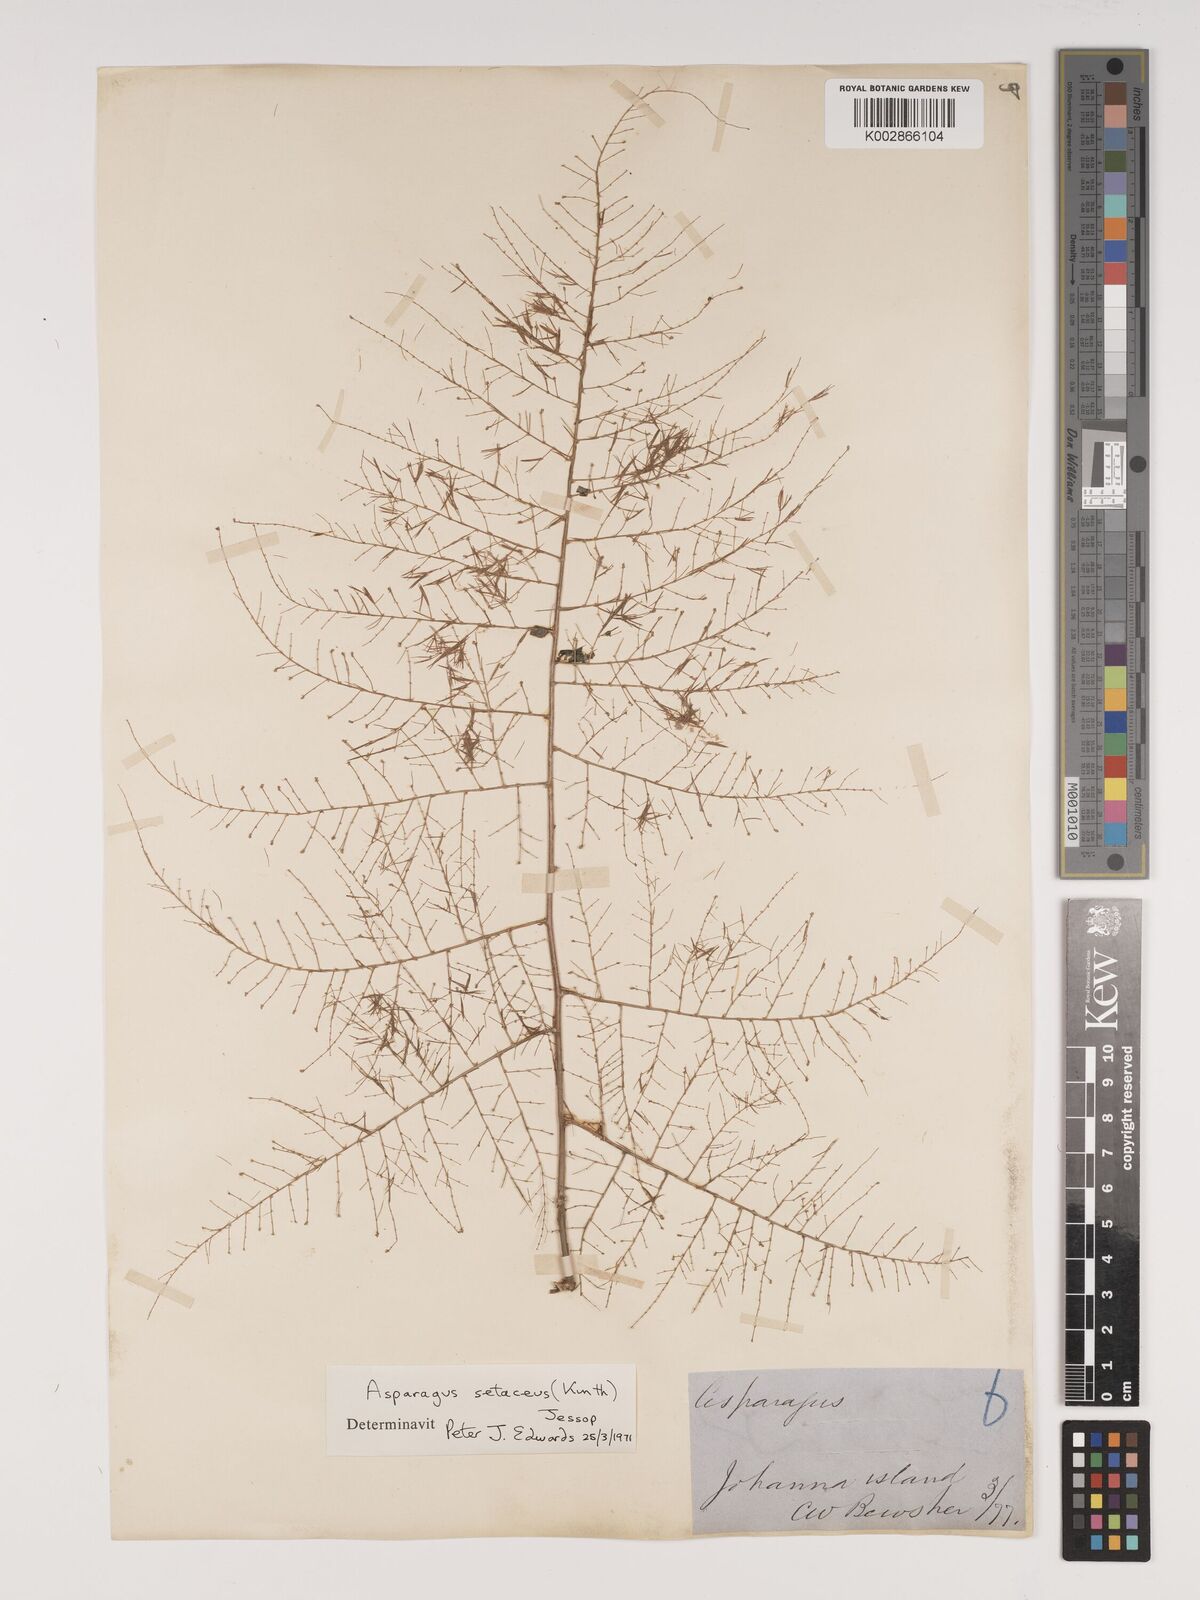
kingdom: Plantae
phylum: Tracheophyta
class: Liliopsida
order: Asparagales
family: Asparagaceae
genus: Asparagus
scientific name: Asparagus setaceus
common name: Common asparagus fern
